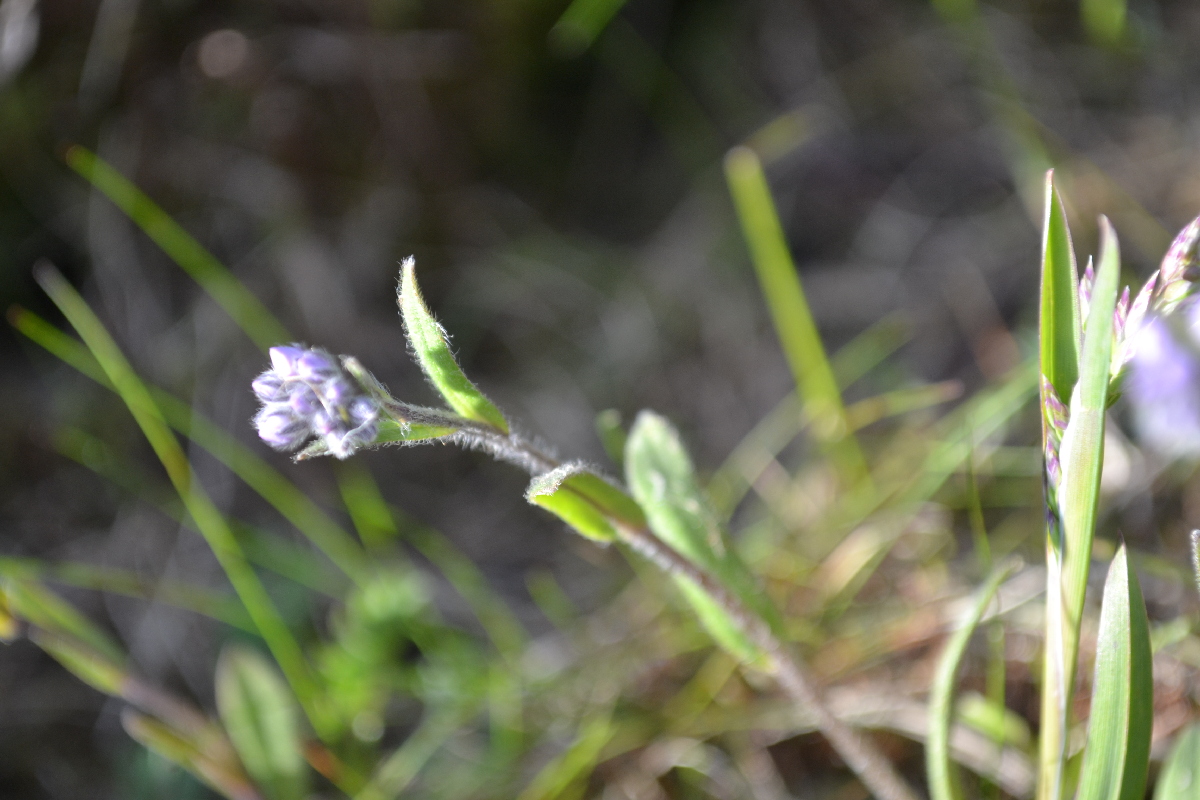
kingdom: Plantae
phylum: Tracheophyta
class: Magnoliopsida
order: Boraginales
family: Boraginaceae
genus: Myosotis
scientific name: Myosotis asiatica
